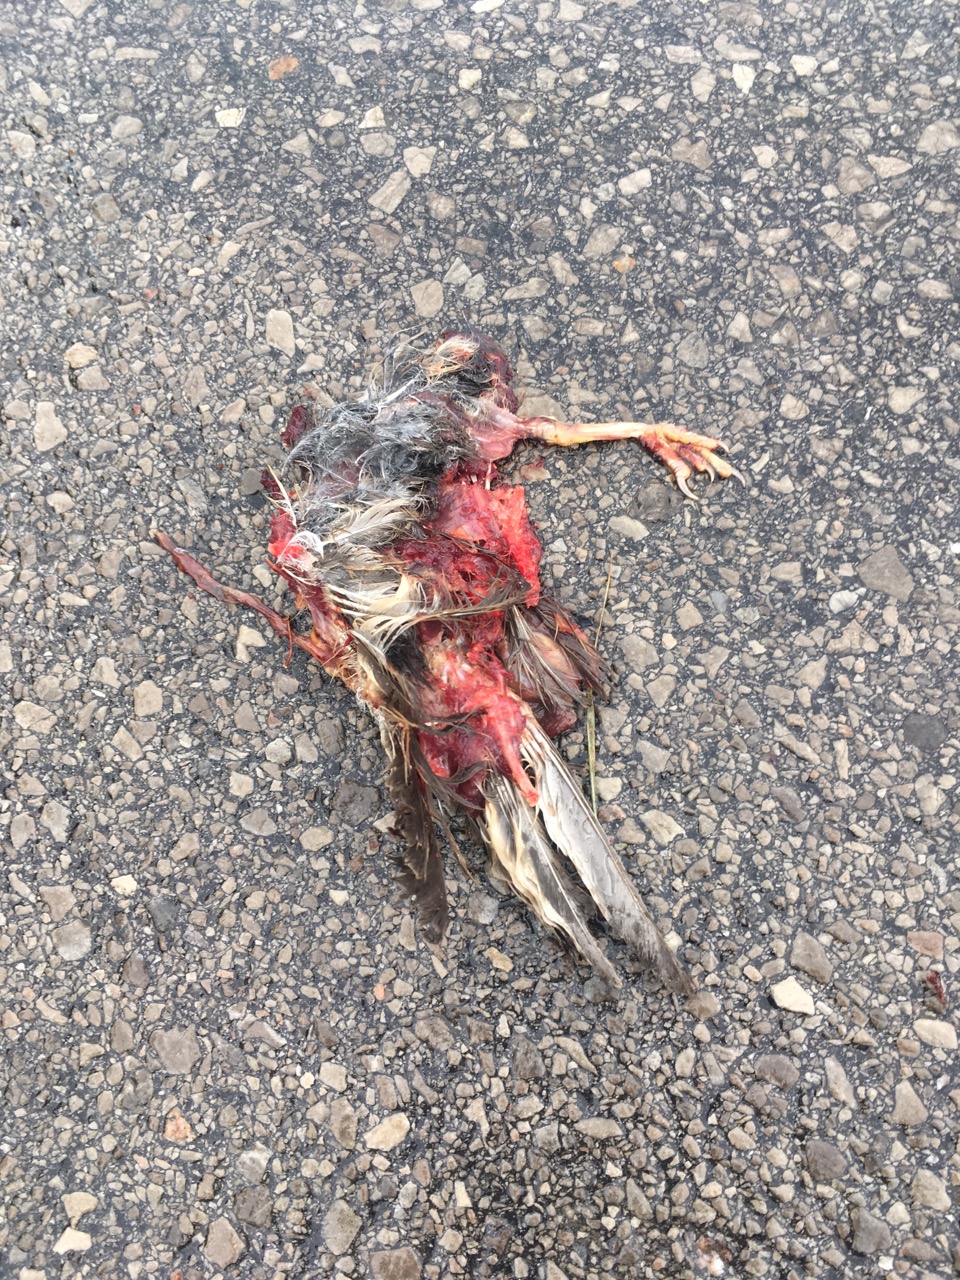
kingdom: Animalia
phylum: Chordata
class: Aves
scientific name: Aves
